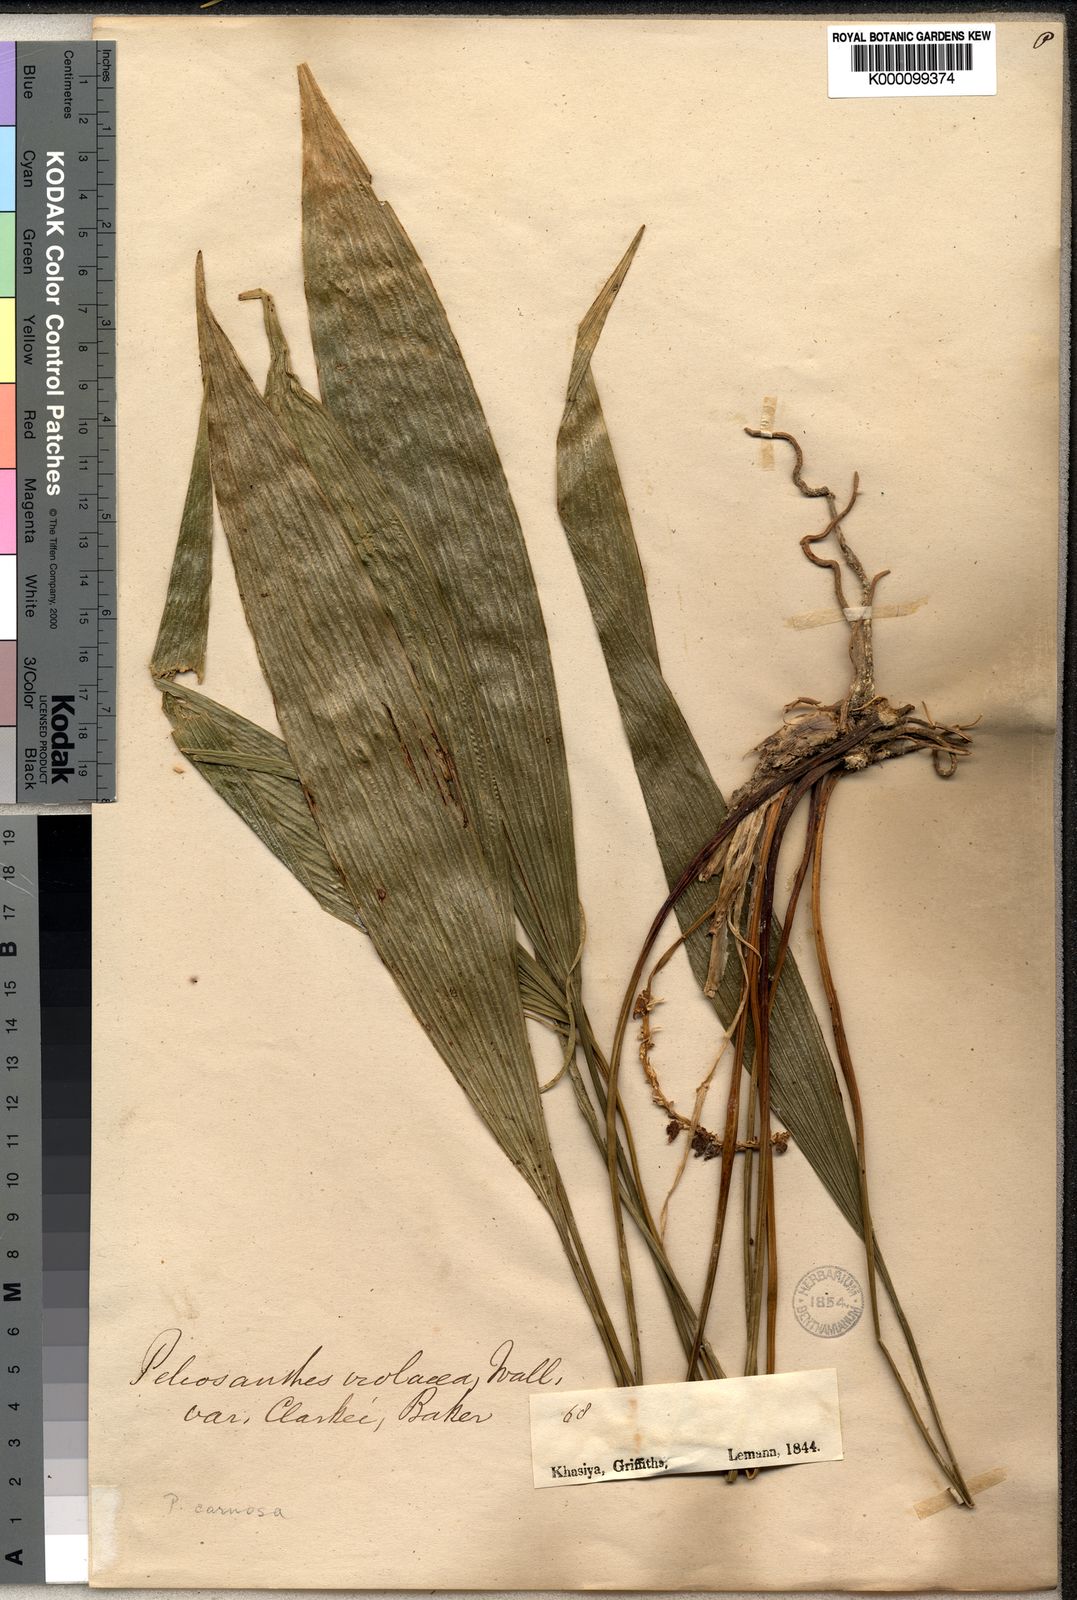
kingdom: Plantae
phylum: Tracheophyta
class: Liliopsida
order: Asparagales
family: Asparagaceae
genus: Peliosanthes
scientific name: Peliosanthes
